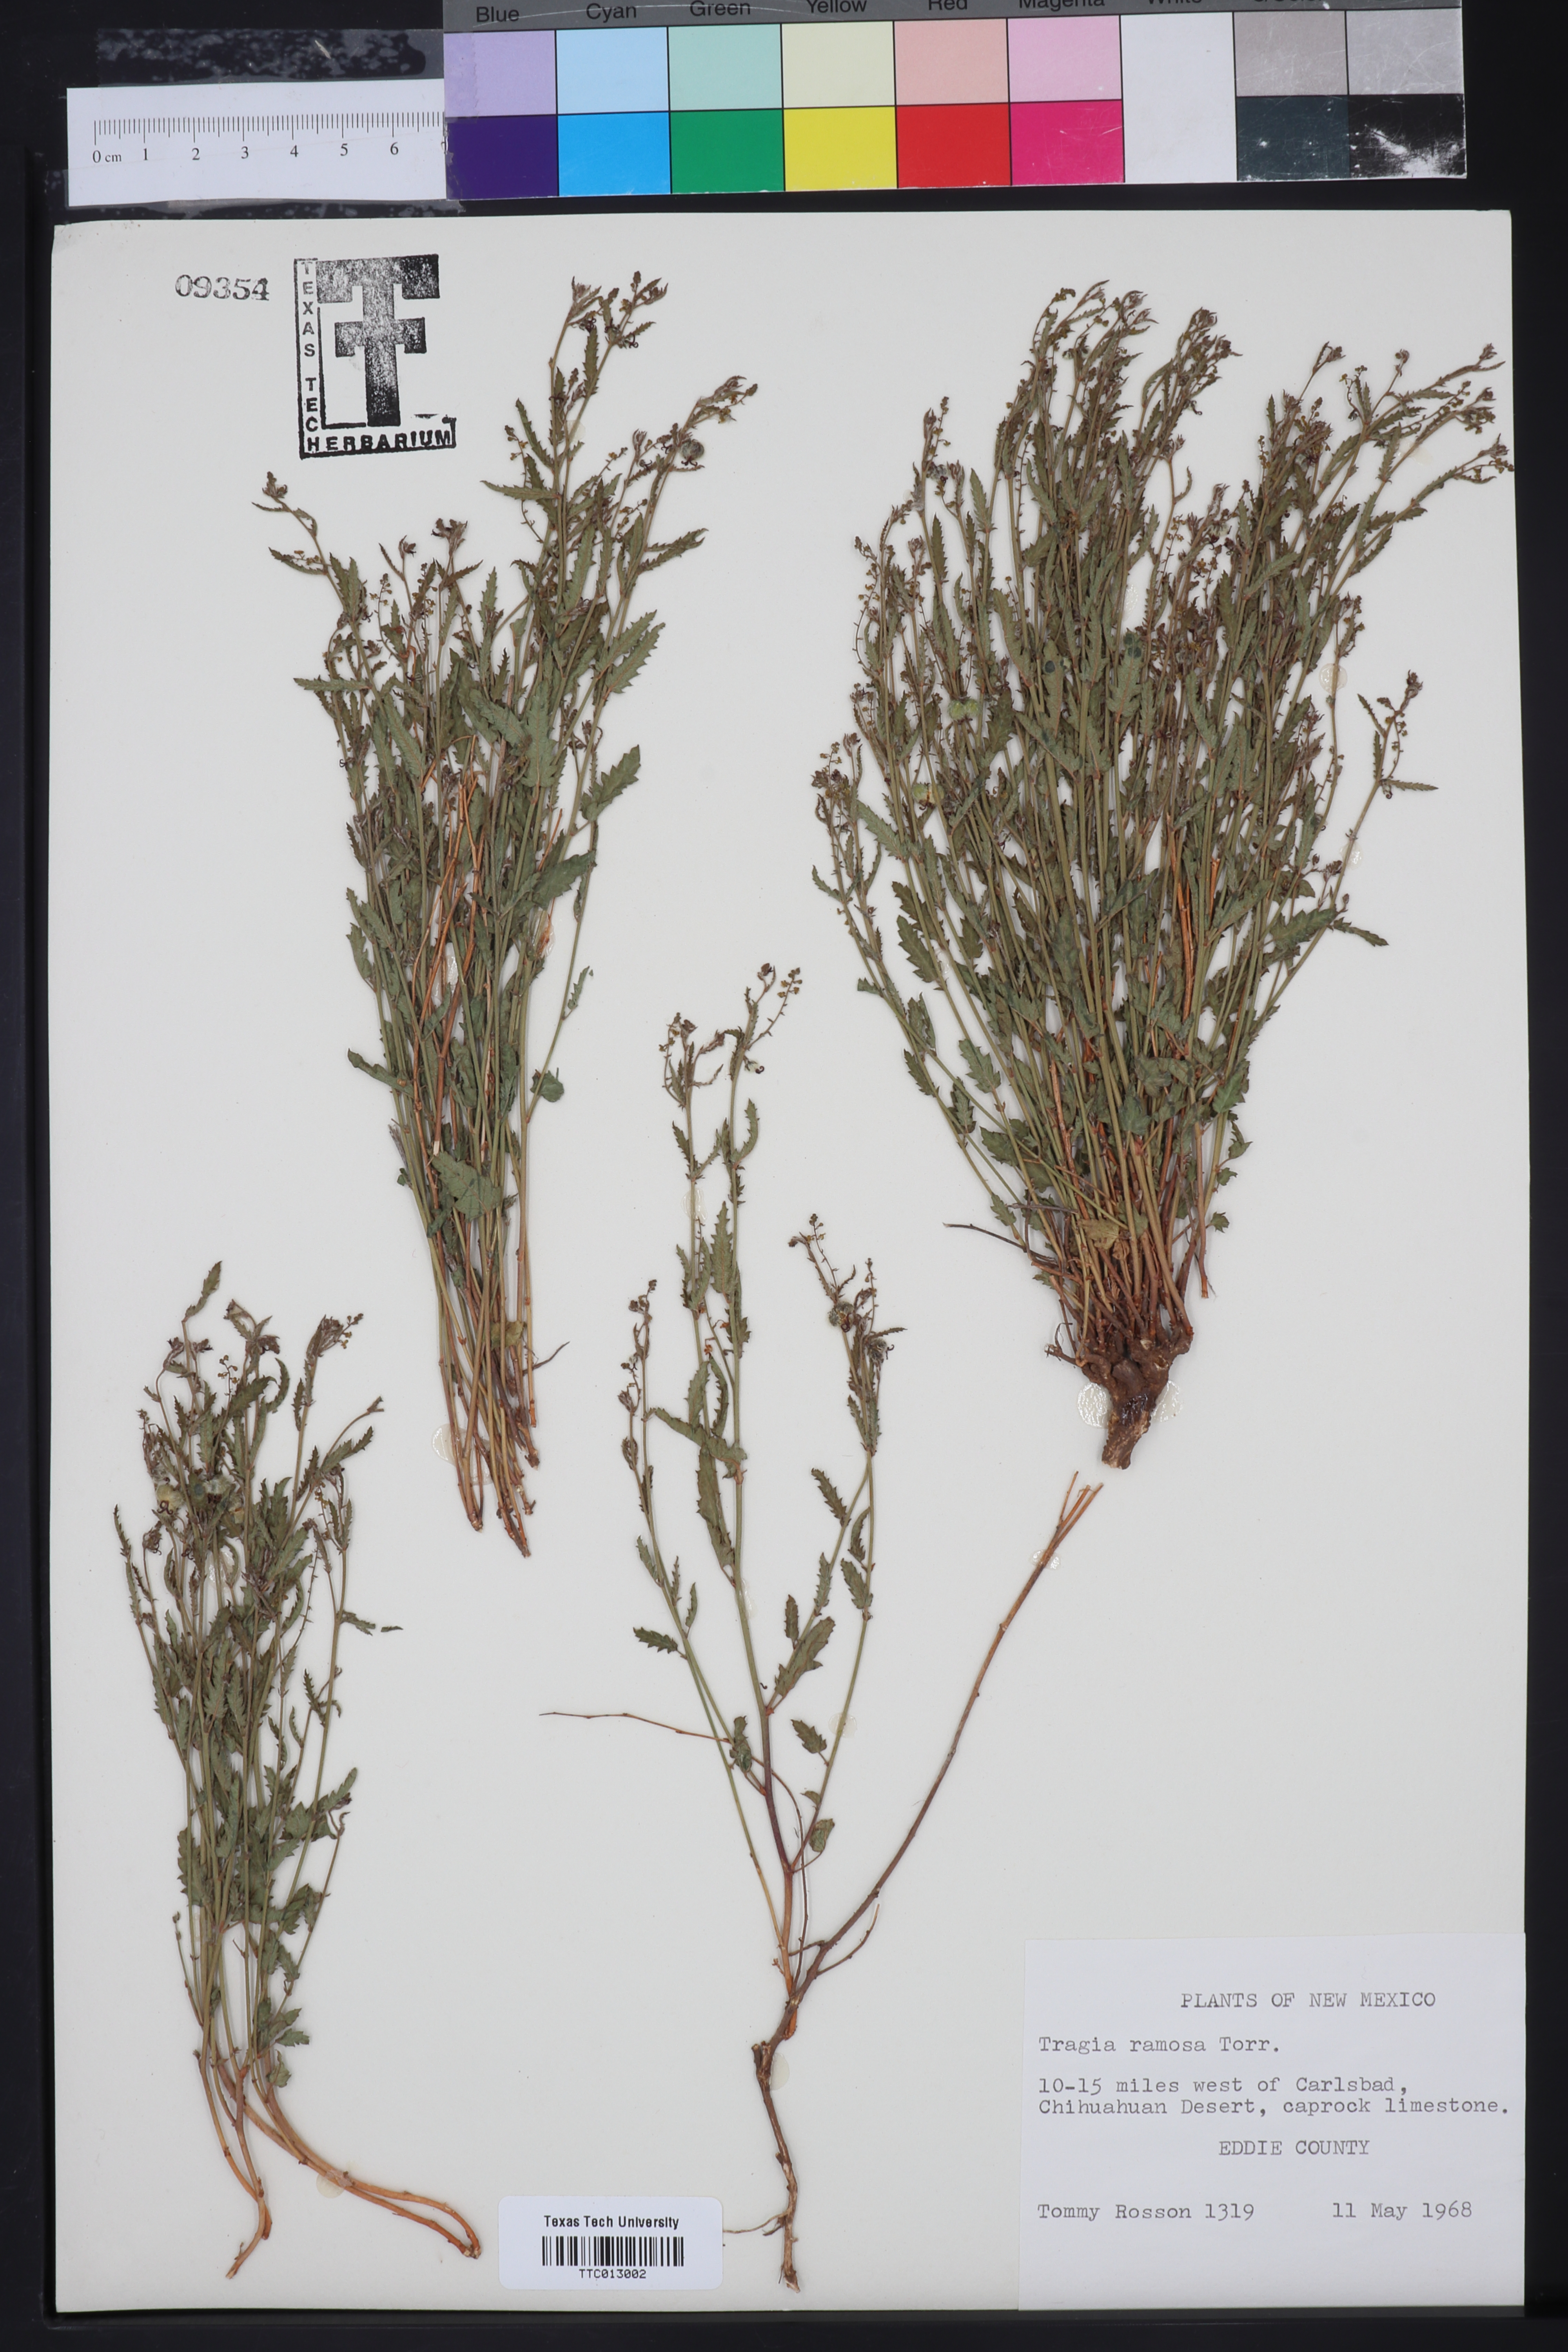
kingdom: Plantae
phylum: Tracheophyta
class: Magnoliopsida
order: Malpighiales
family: Euphorbiaceae
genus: Tragia
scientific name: Tragia ramosa
